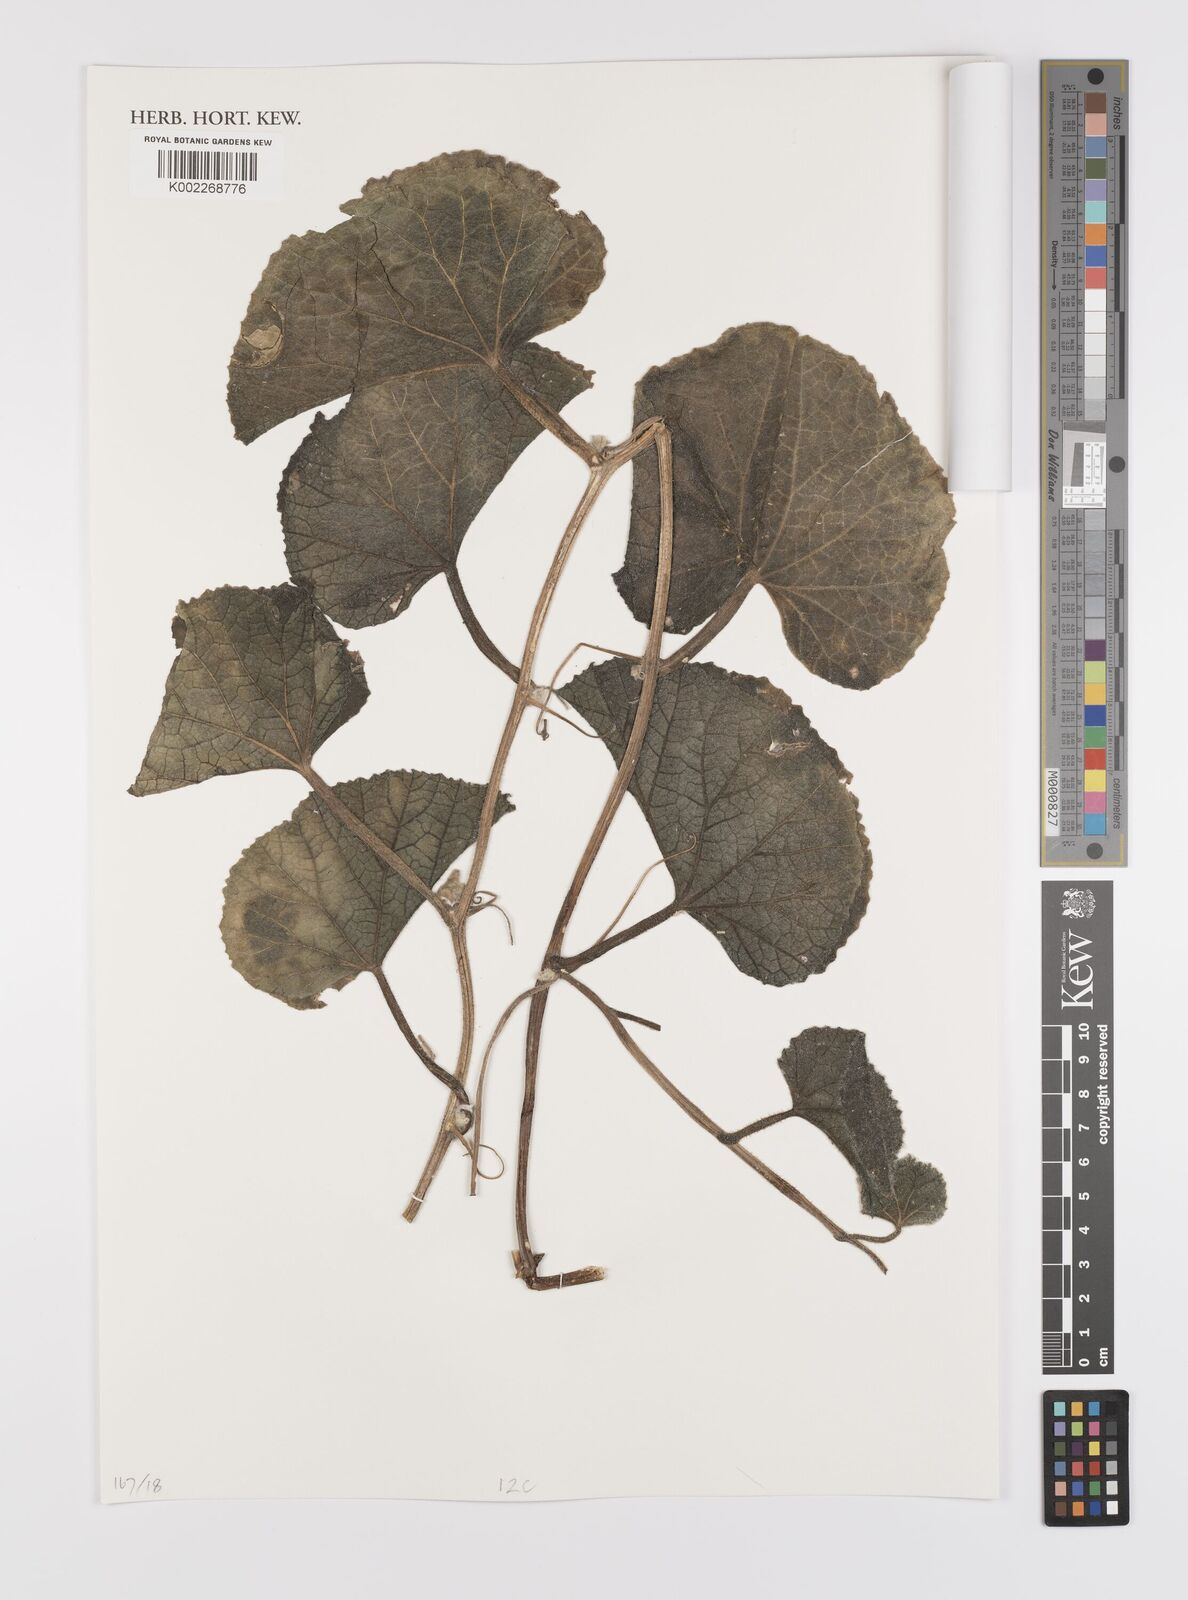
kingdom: Plantae
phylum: Tracheophyta
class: Magnoliopsida
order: Cucurbitales
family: Cucurbitaceae
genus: Cucumis
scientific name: Cucumis sagittatus
